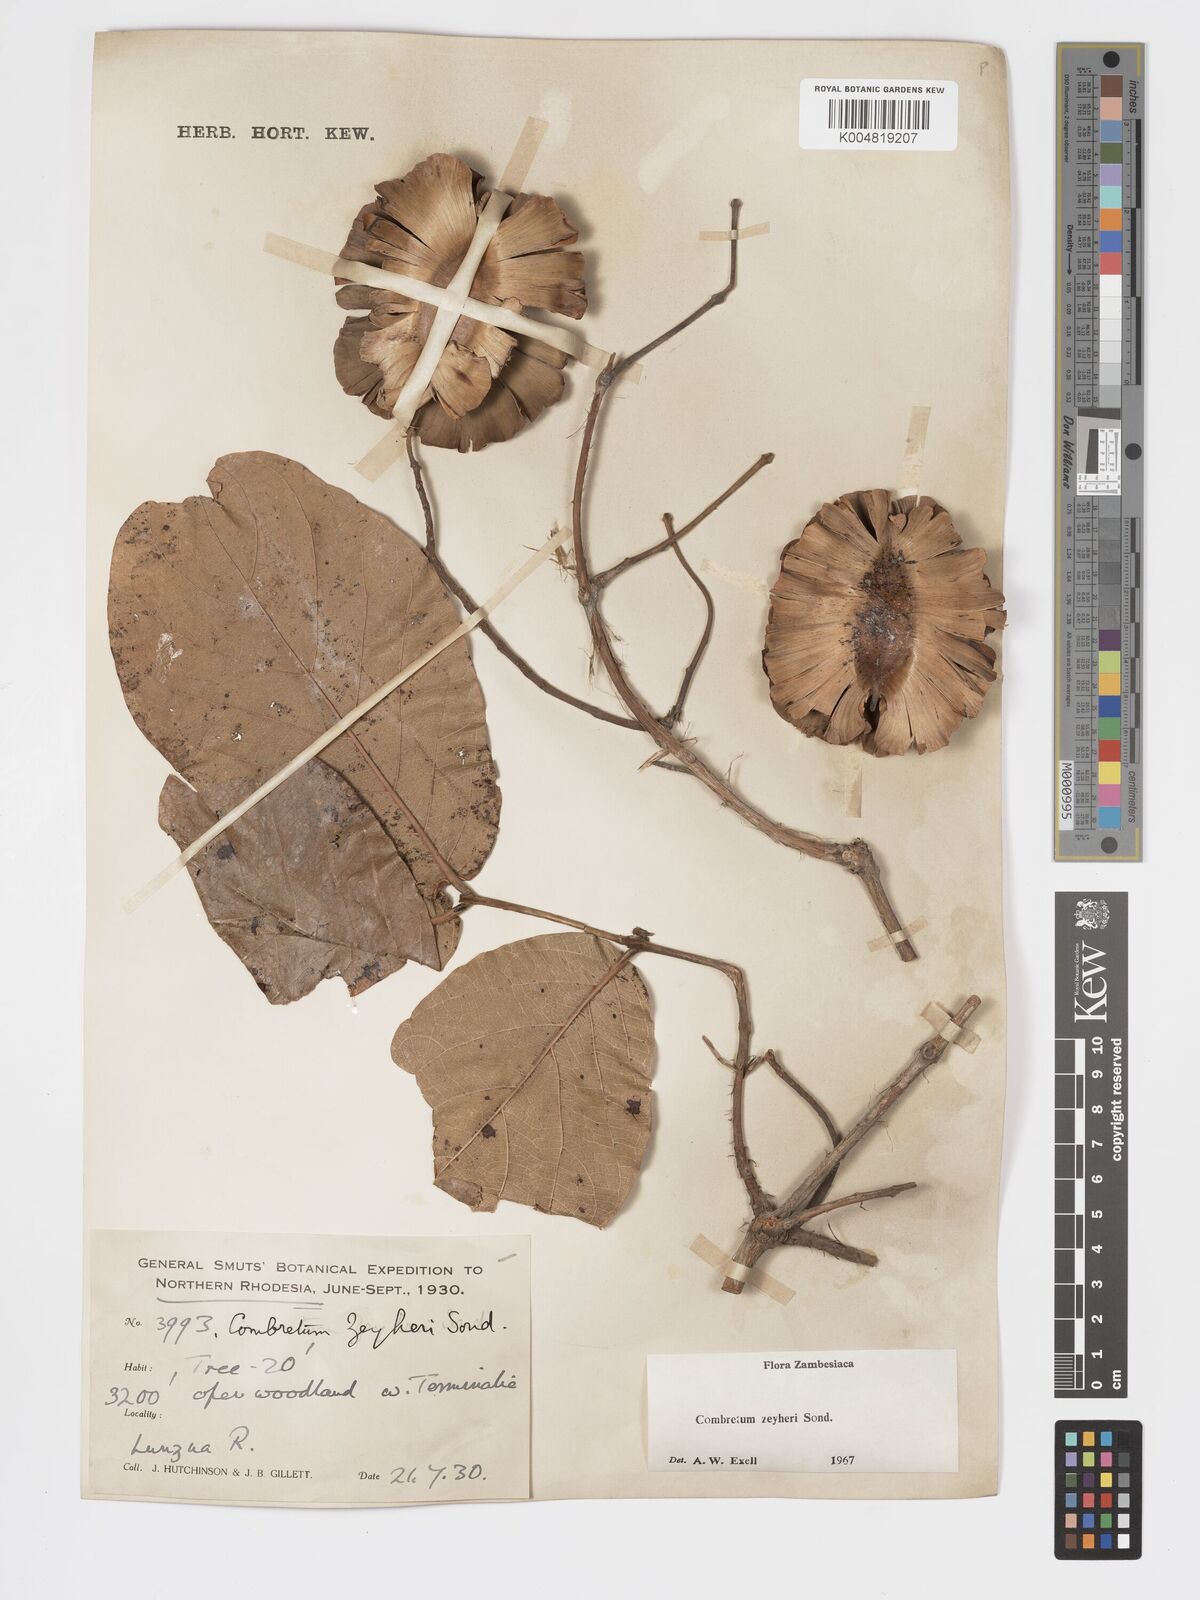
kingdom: Plantae
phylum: Tracheophyta
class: Magnoliopsida
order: Myrtales
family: Combretaceae
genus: Combretum
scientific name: Combretum zeyheri
